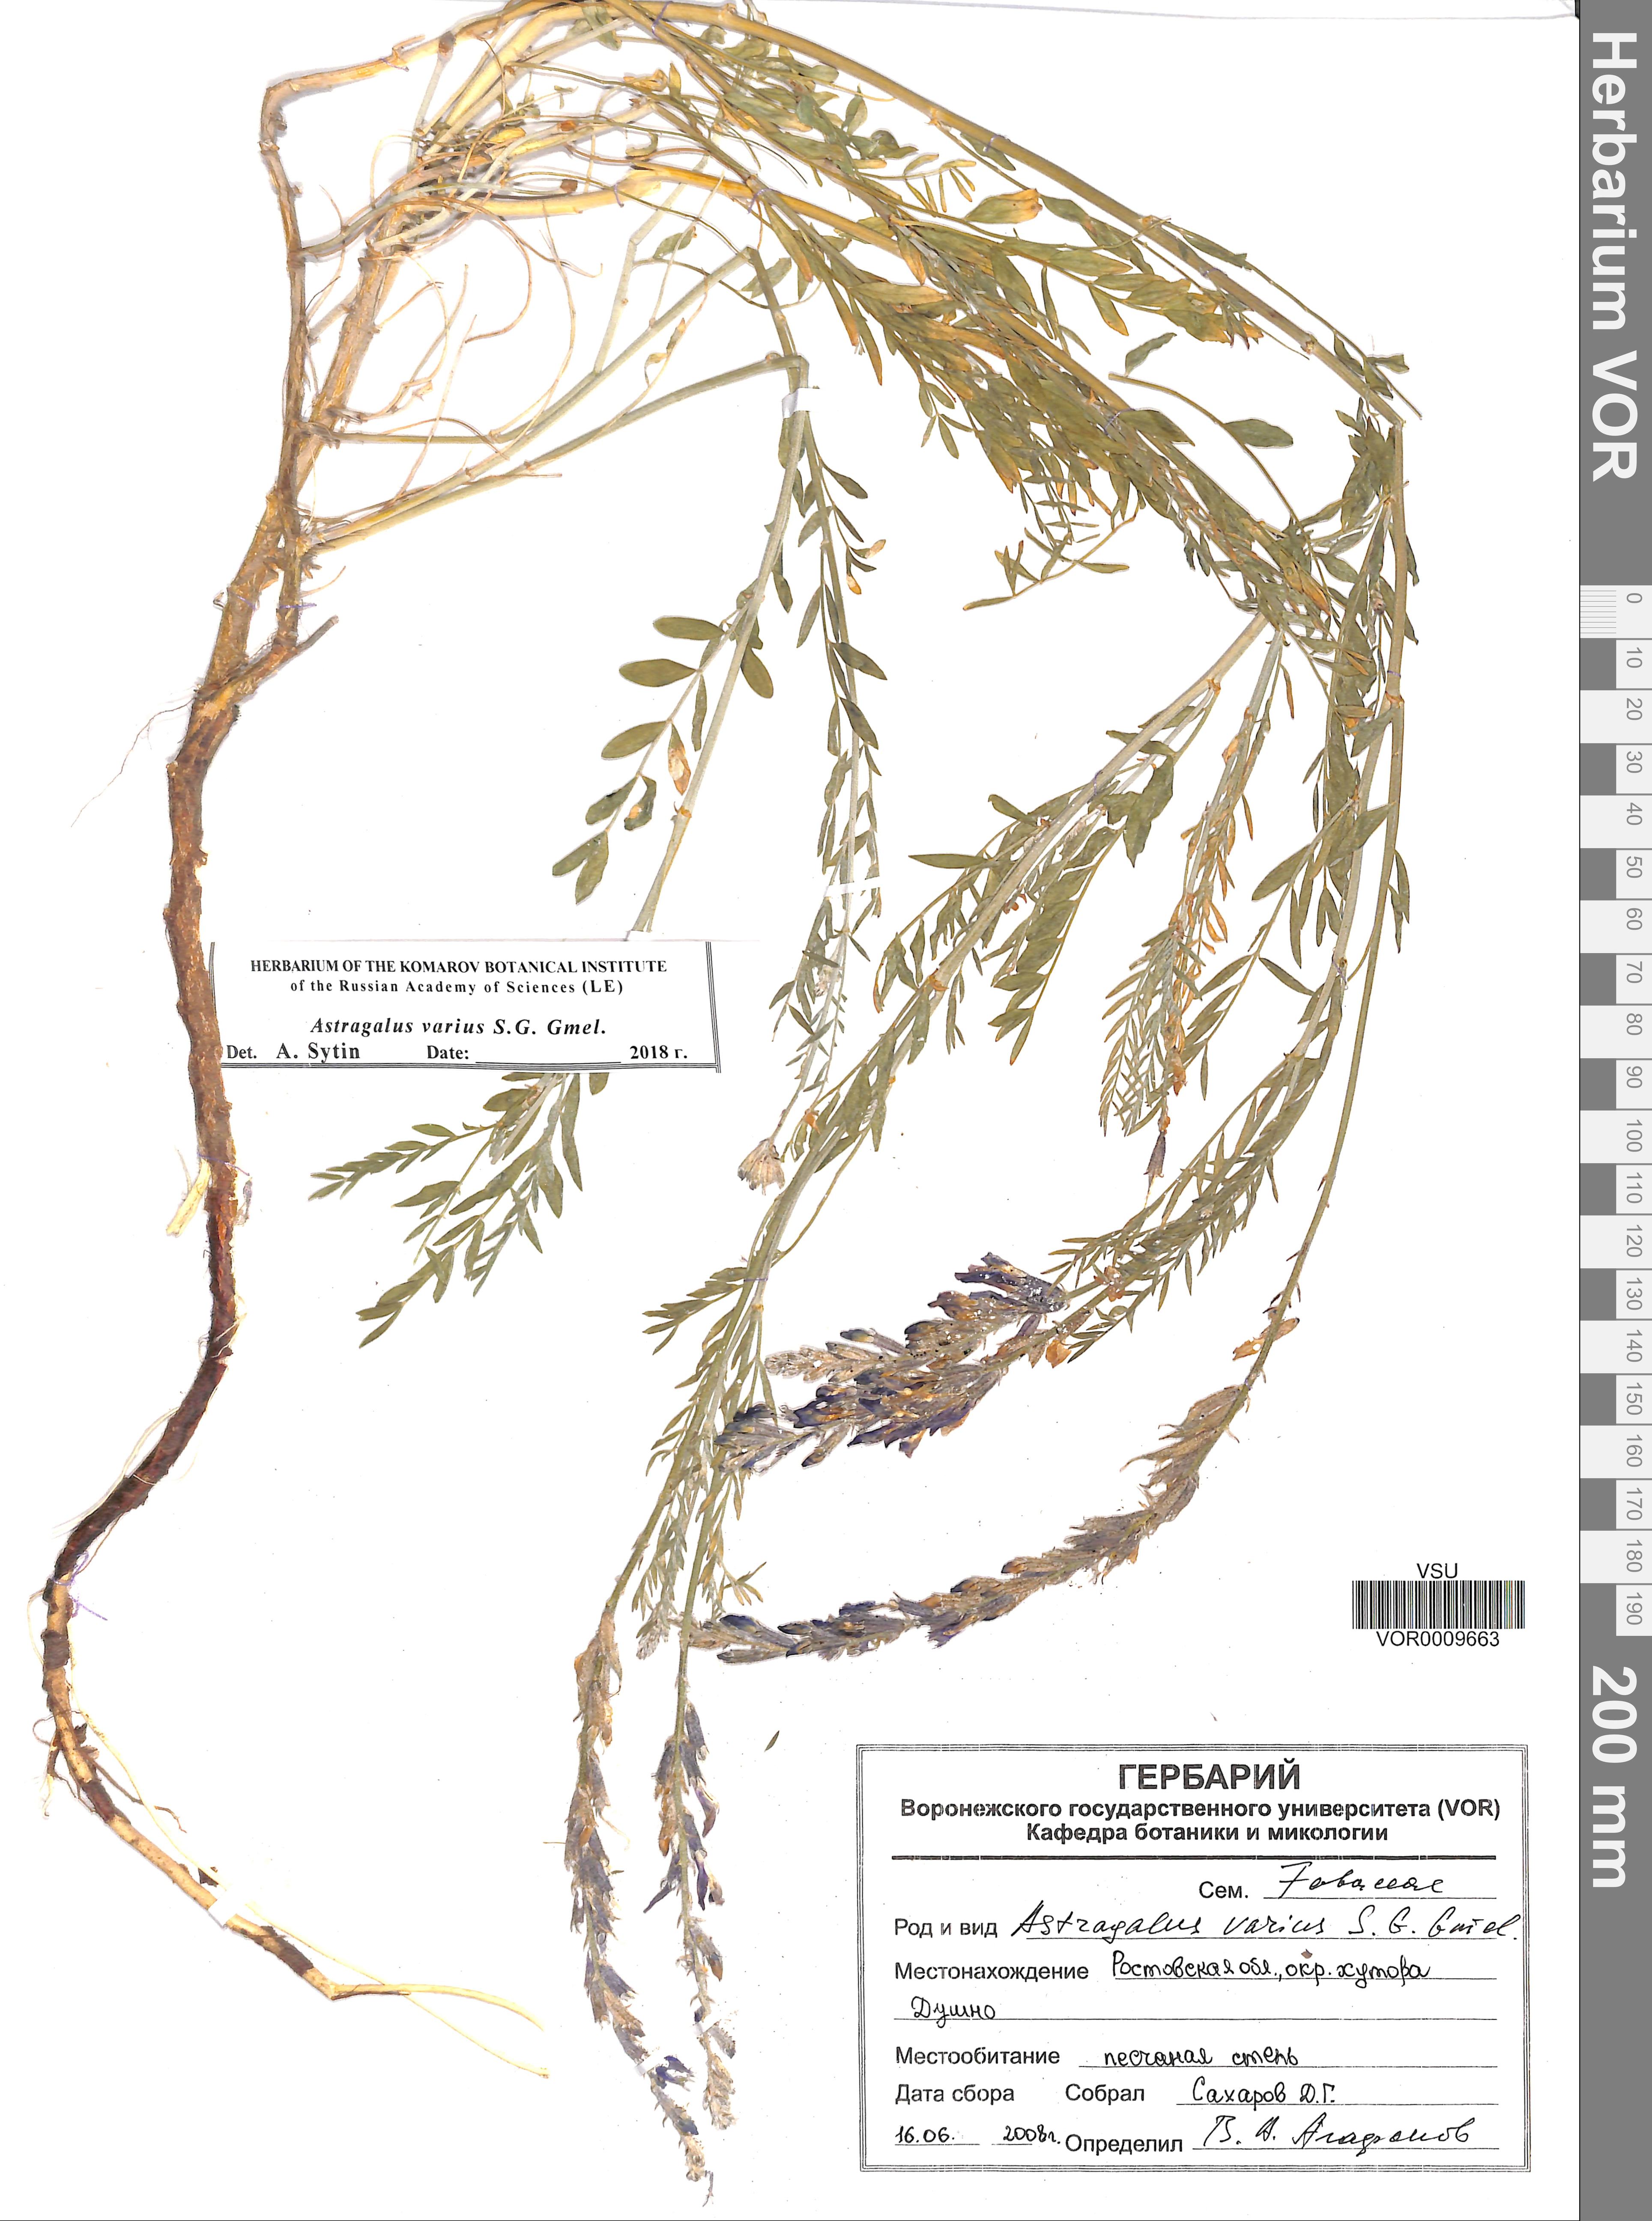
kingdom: Plantae
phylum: Tracheophyta
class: Magnoliopsida
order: Fabales
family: Fabaceae
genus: Astragalus
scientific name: Astragalus varius
